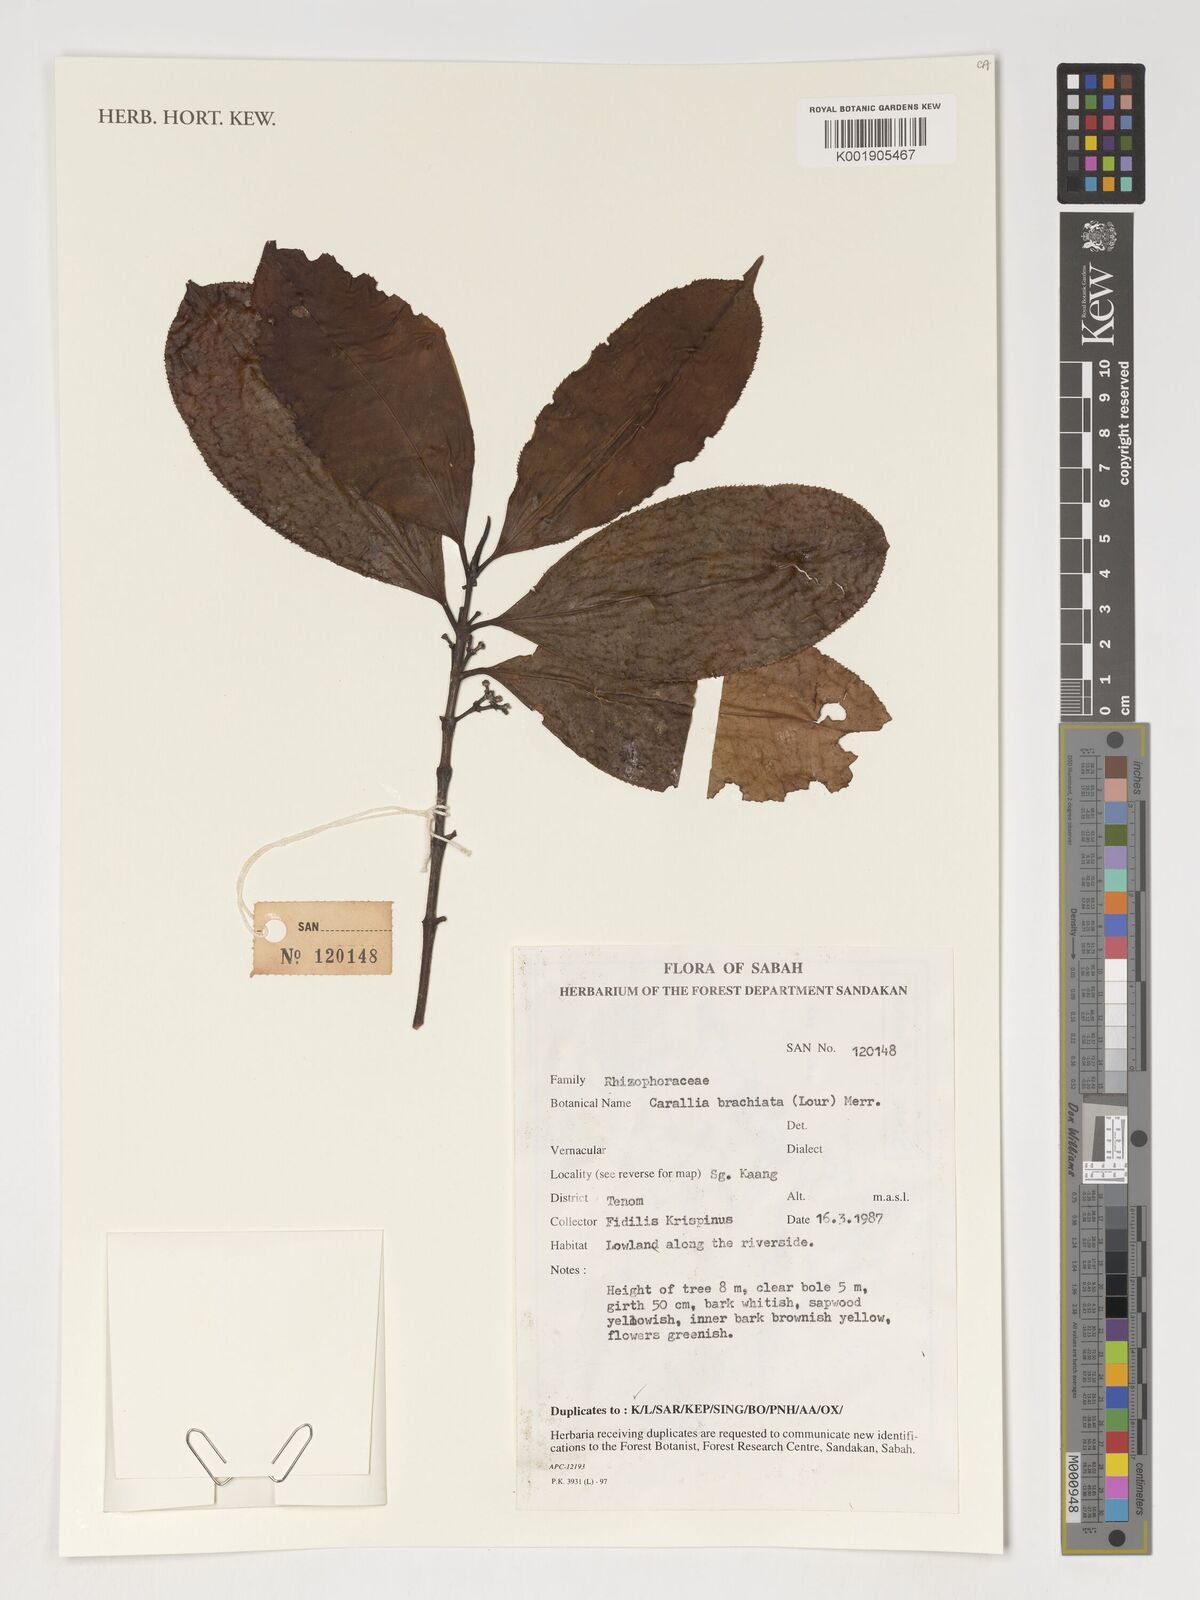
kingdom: Plantae
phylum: Tracheophyta
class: Magnoliopsida
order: Malpighiales
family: Rhizophoraceae
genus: Carallia
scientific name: Carallia brachiata
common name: Carallawood
